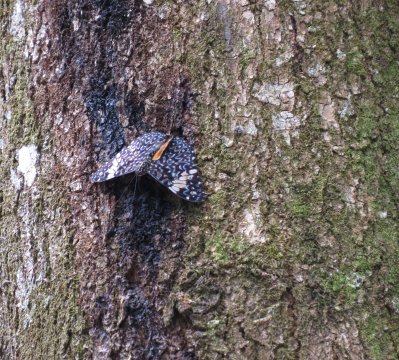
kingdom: Animalia
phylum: Arthropoda
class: Insecta
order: Lepidoptera
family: Nymphalidae
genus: Hamadryas
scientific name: Hamadryas amphinome
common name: Red Cracker
